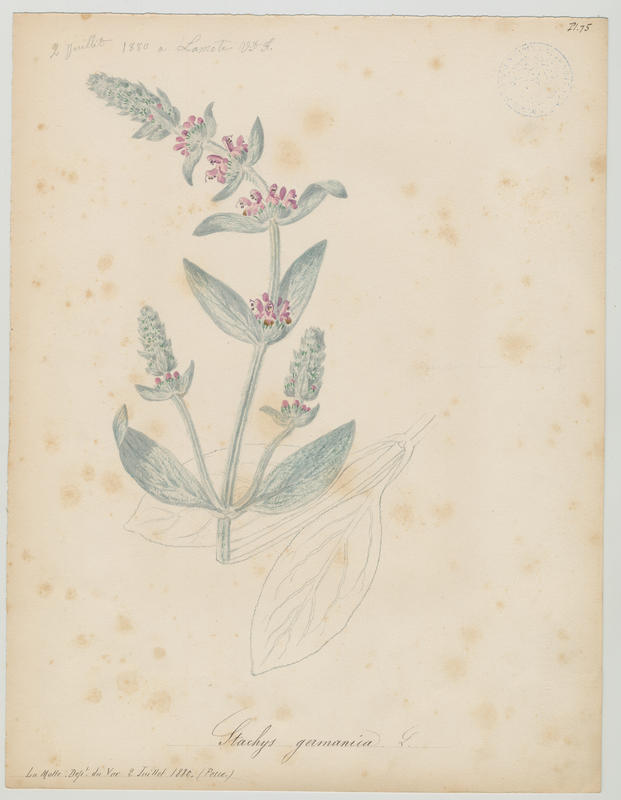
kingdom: Plantae
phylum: Tracheophyta
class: Magnoliopsida
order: Lamiales
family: Lamiaceae
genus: Stachys
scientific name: Stachys germanica
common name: Downy woundwort
